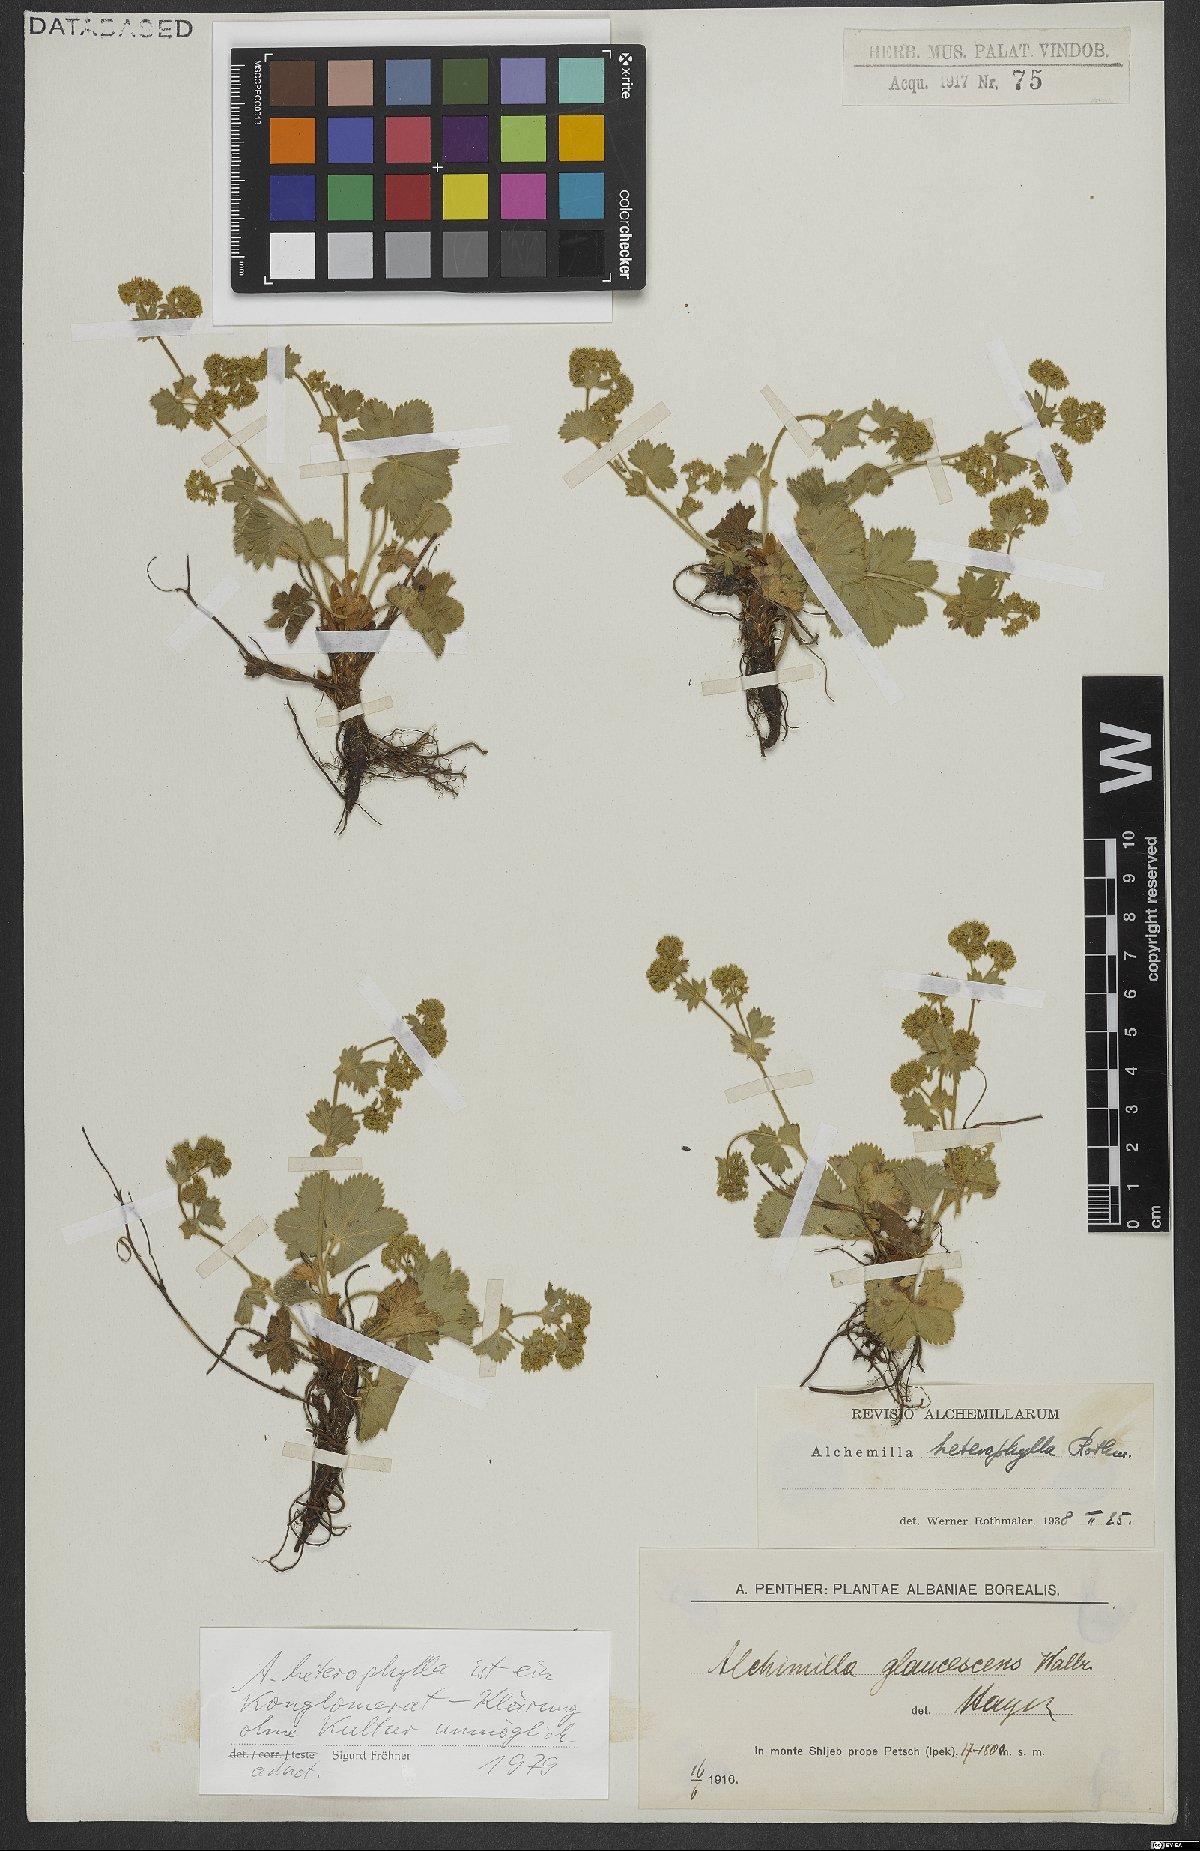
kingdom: Plantae
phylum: Tracheophyta
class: Magnoliopsida
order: Rosales
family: Rosaceae
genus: Alchemilla
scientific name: Alchemilla heterophylla
